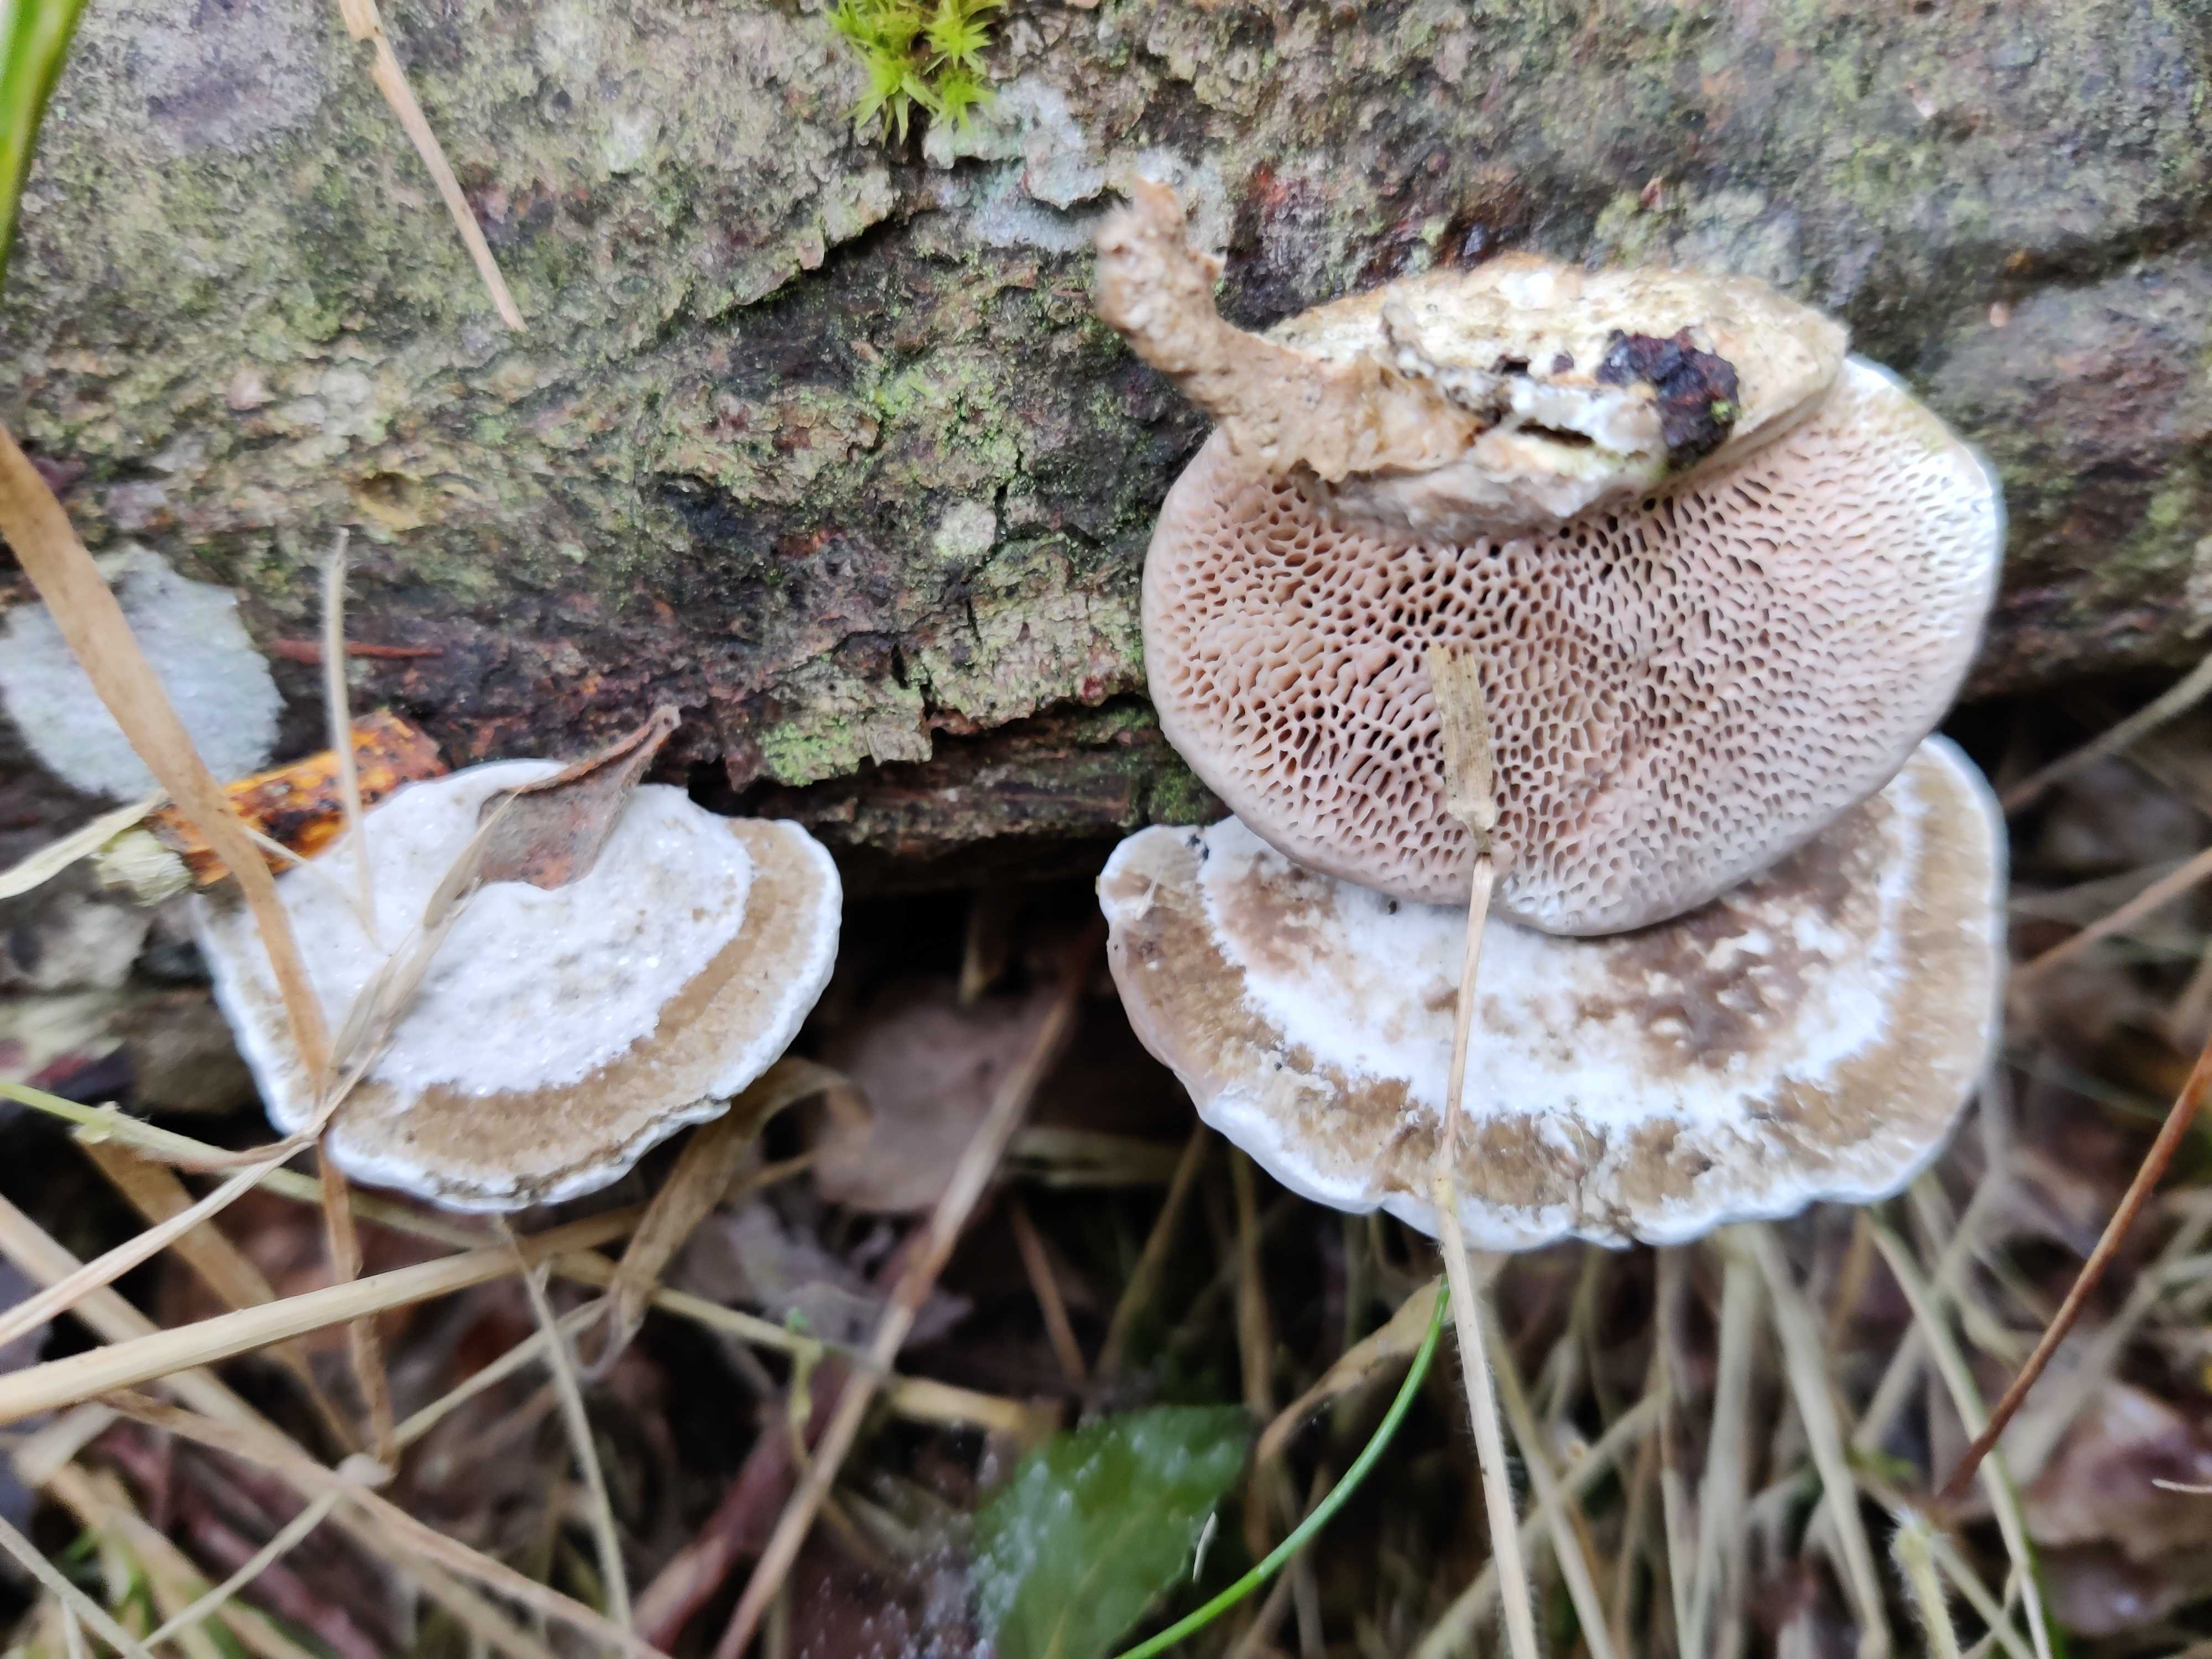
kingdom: Fungi
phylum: Basidiomycota
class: Agaricomycetes
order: Polyporales
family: Polyporaceae
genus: Daedaleopsis
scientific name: Daedaleopsis confragosa
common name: rødmende læderporesvamp
